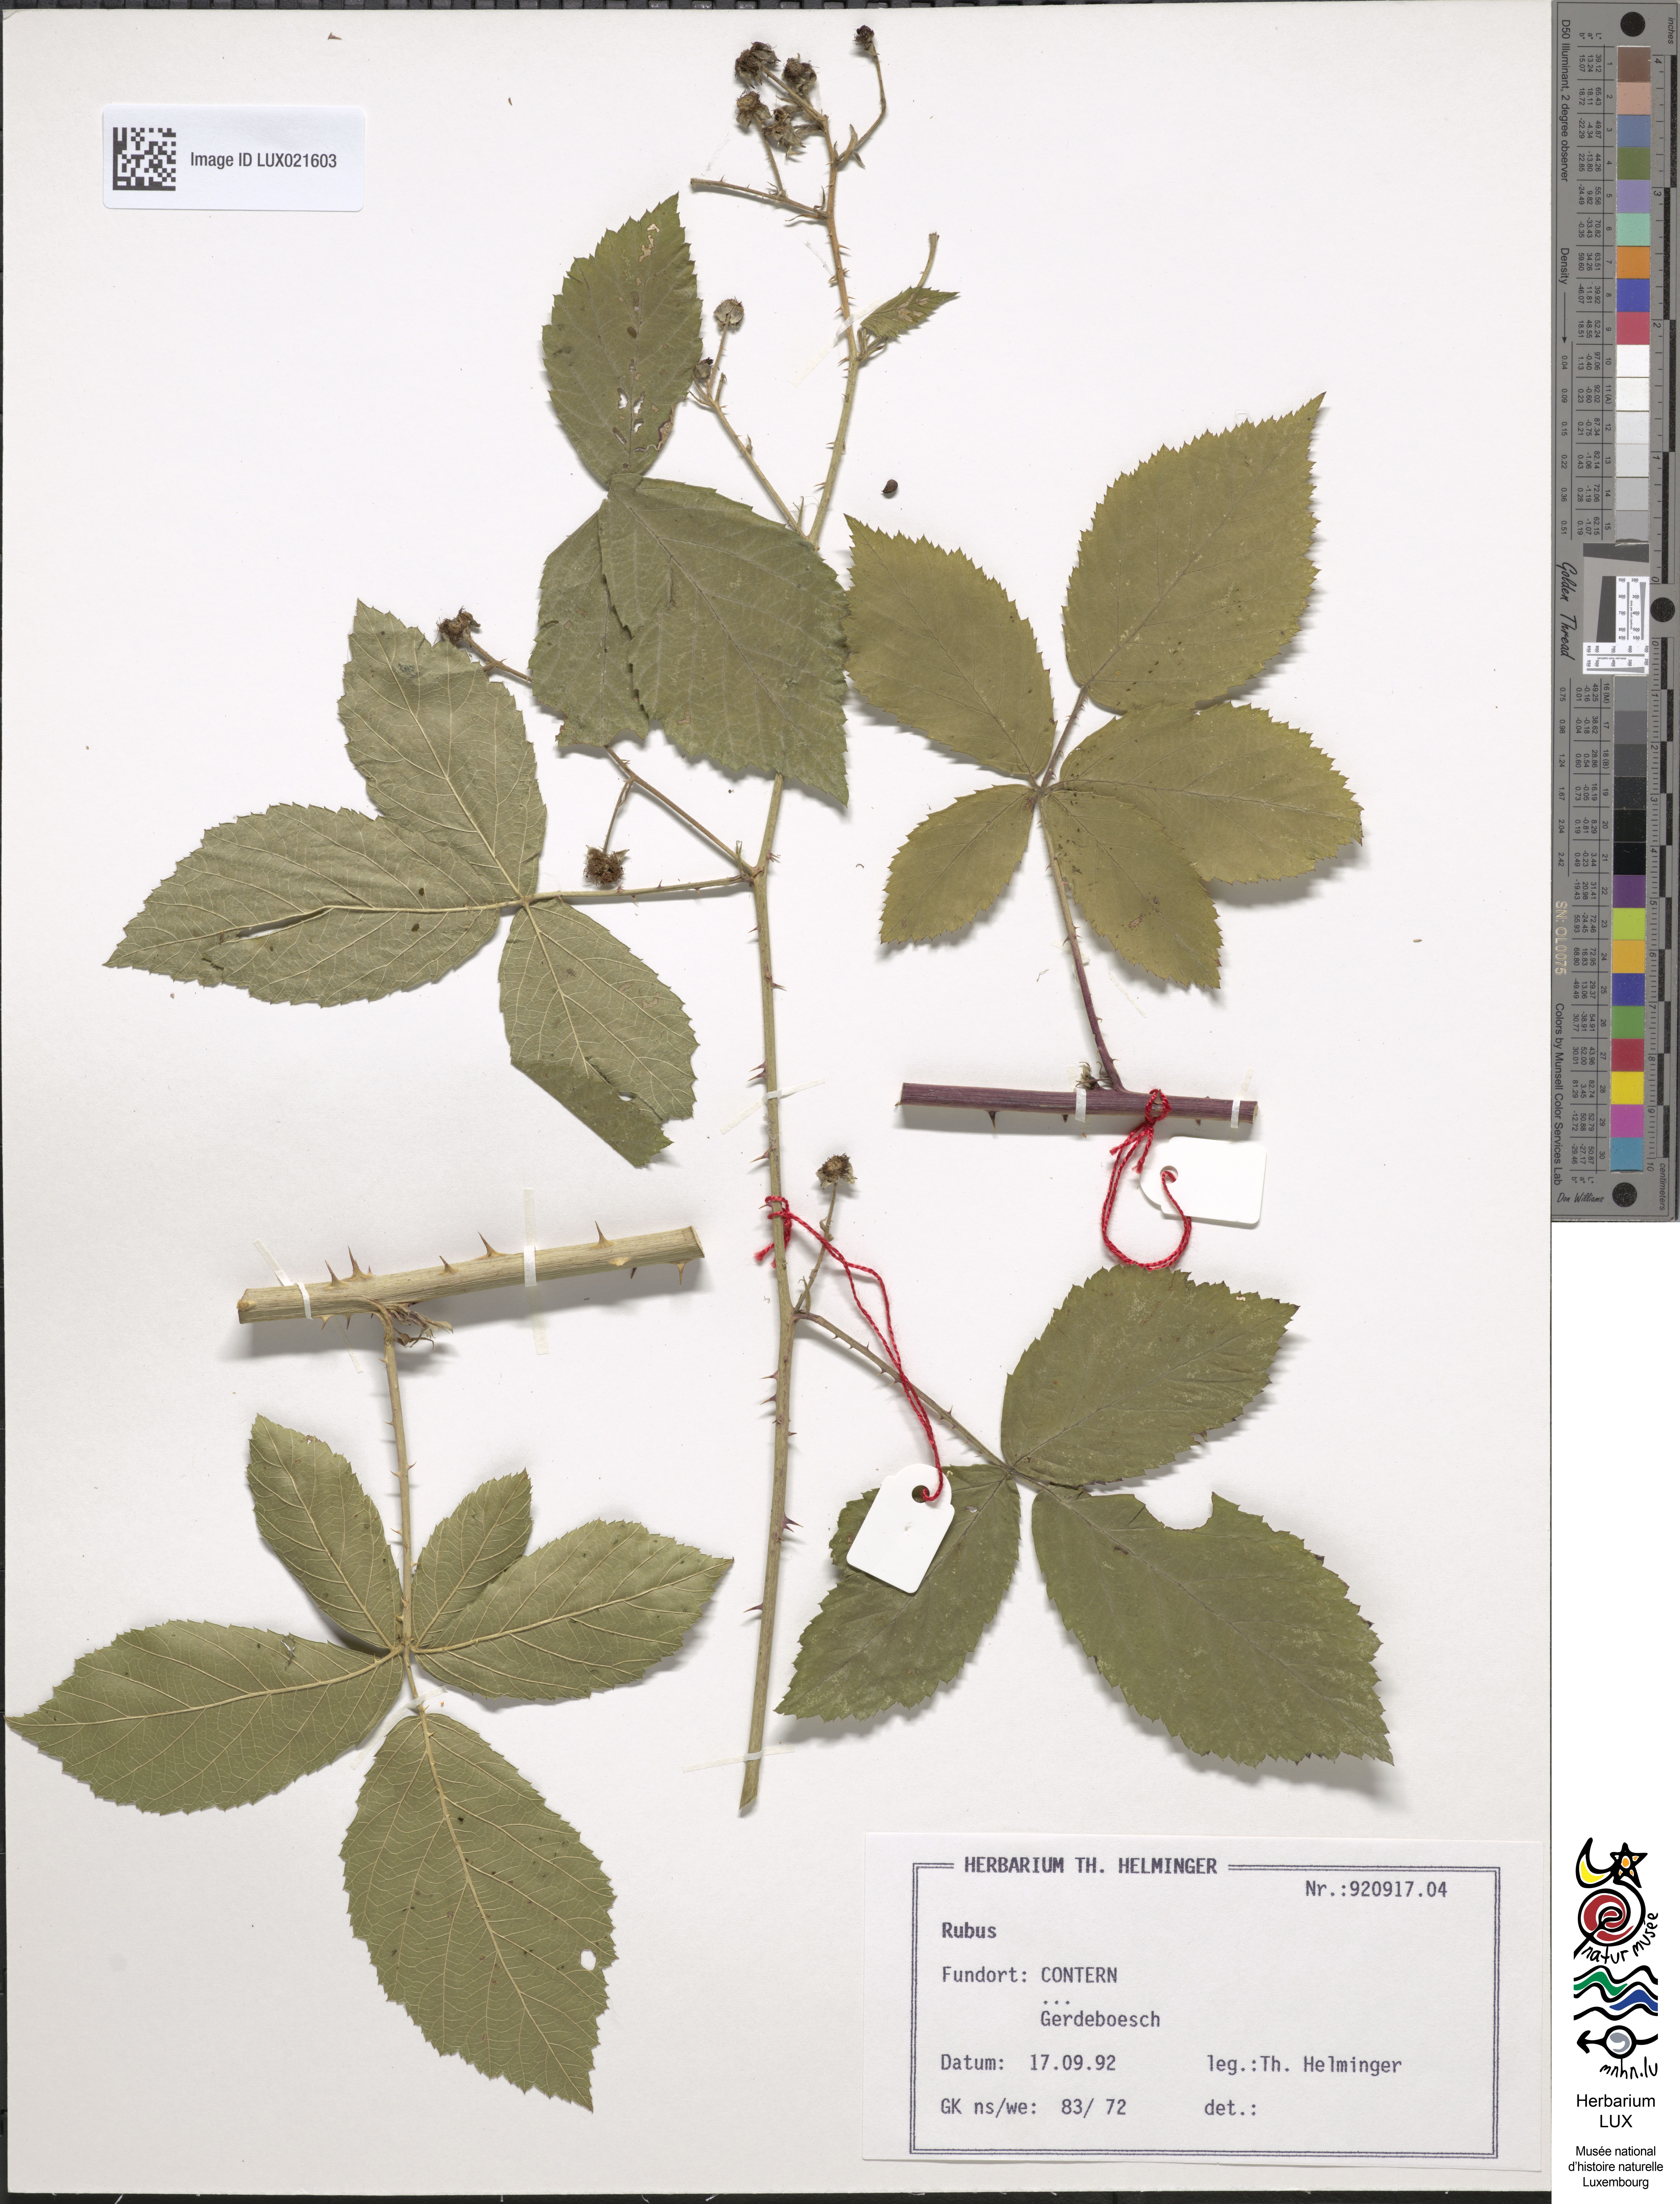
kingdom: Plantae
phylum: Tracheophyta
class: Magnoliopsida
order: Rosales
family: Rosaceae
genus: Rubus
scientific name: Rubus
